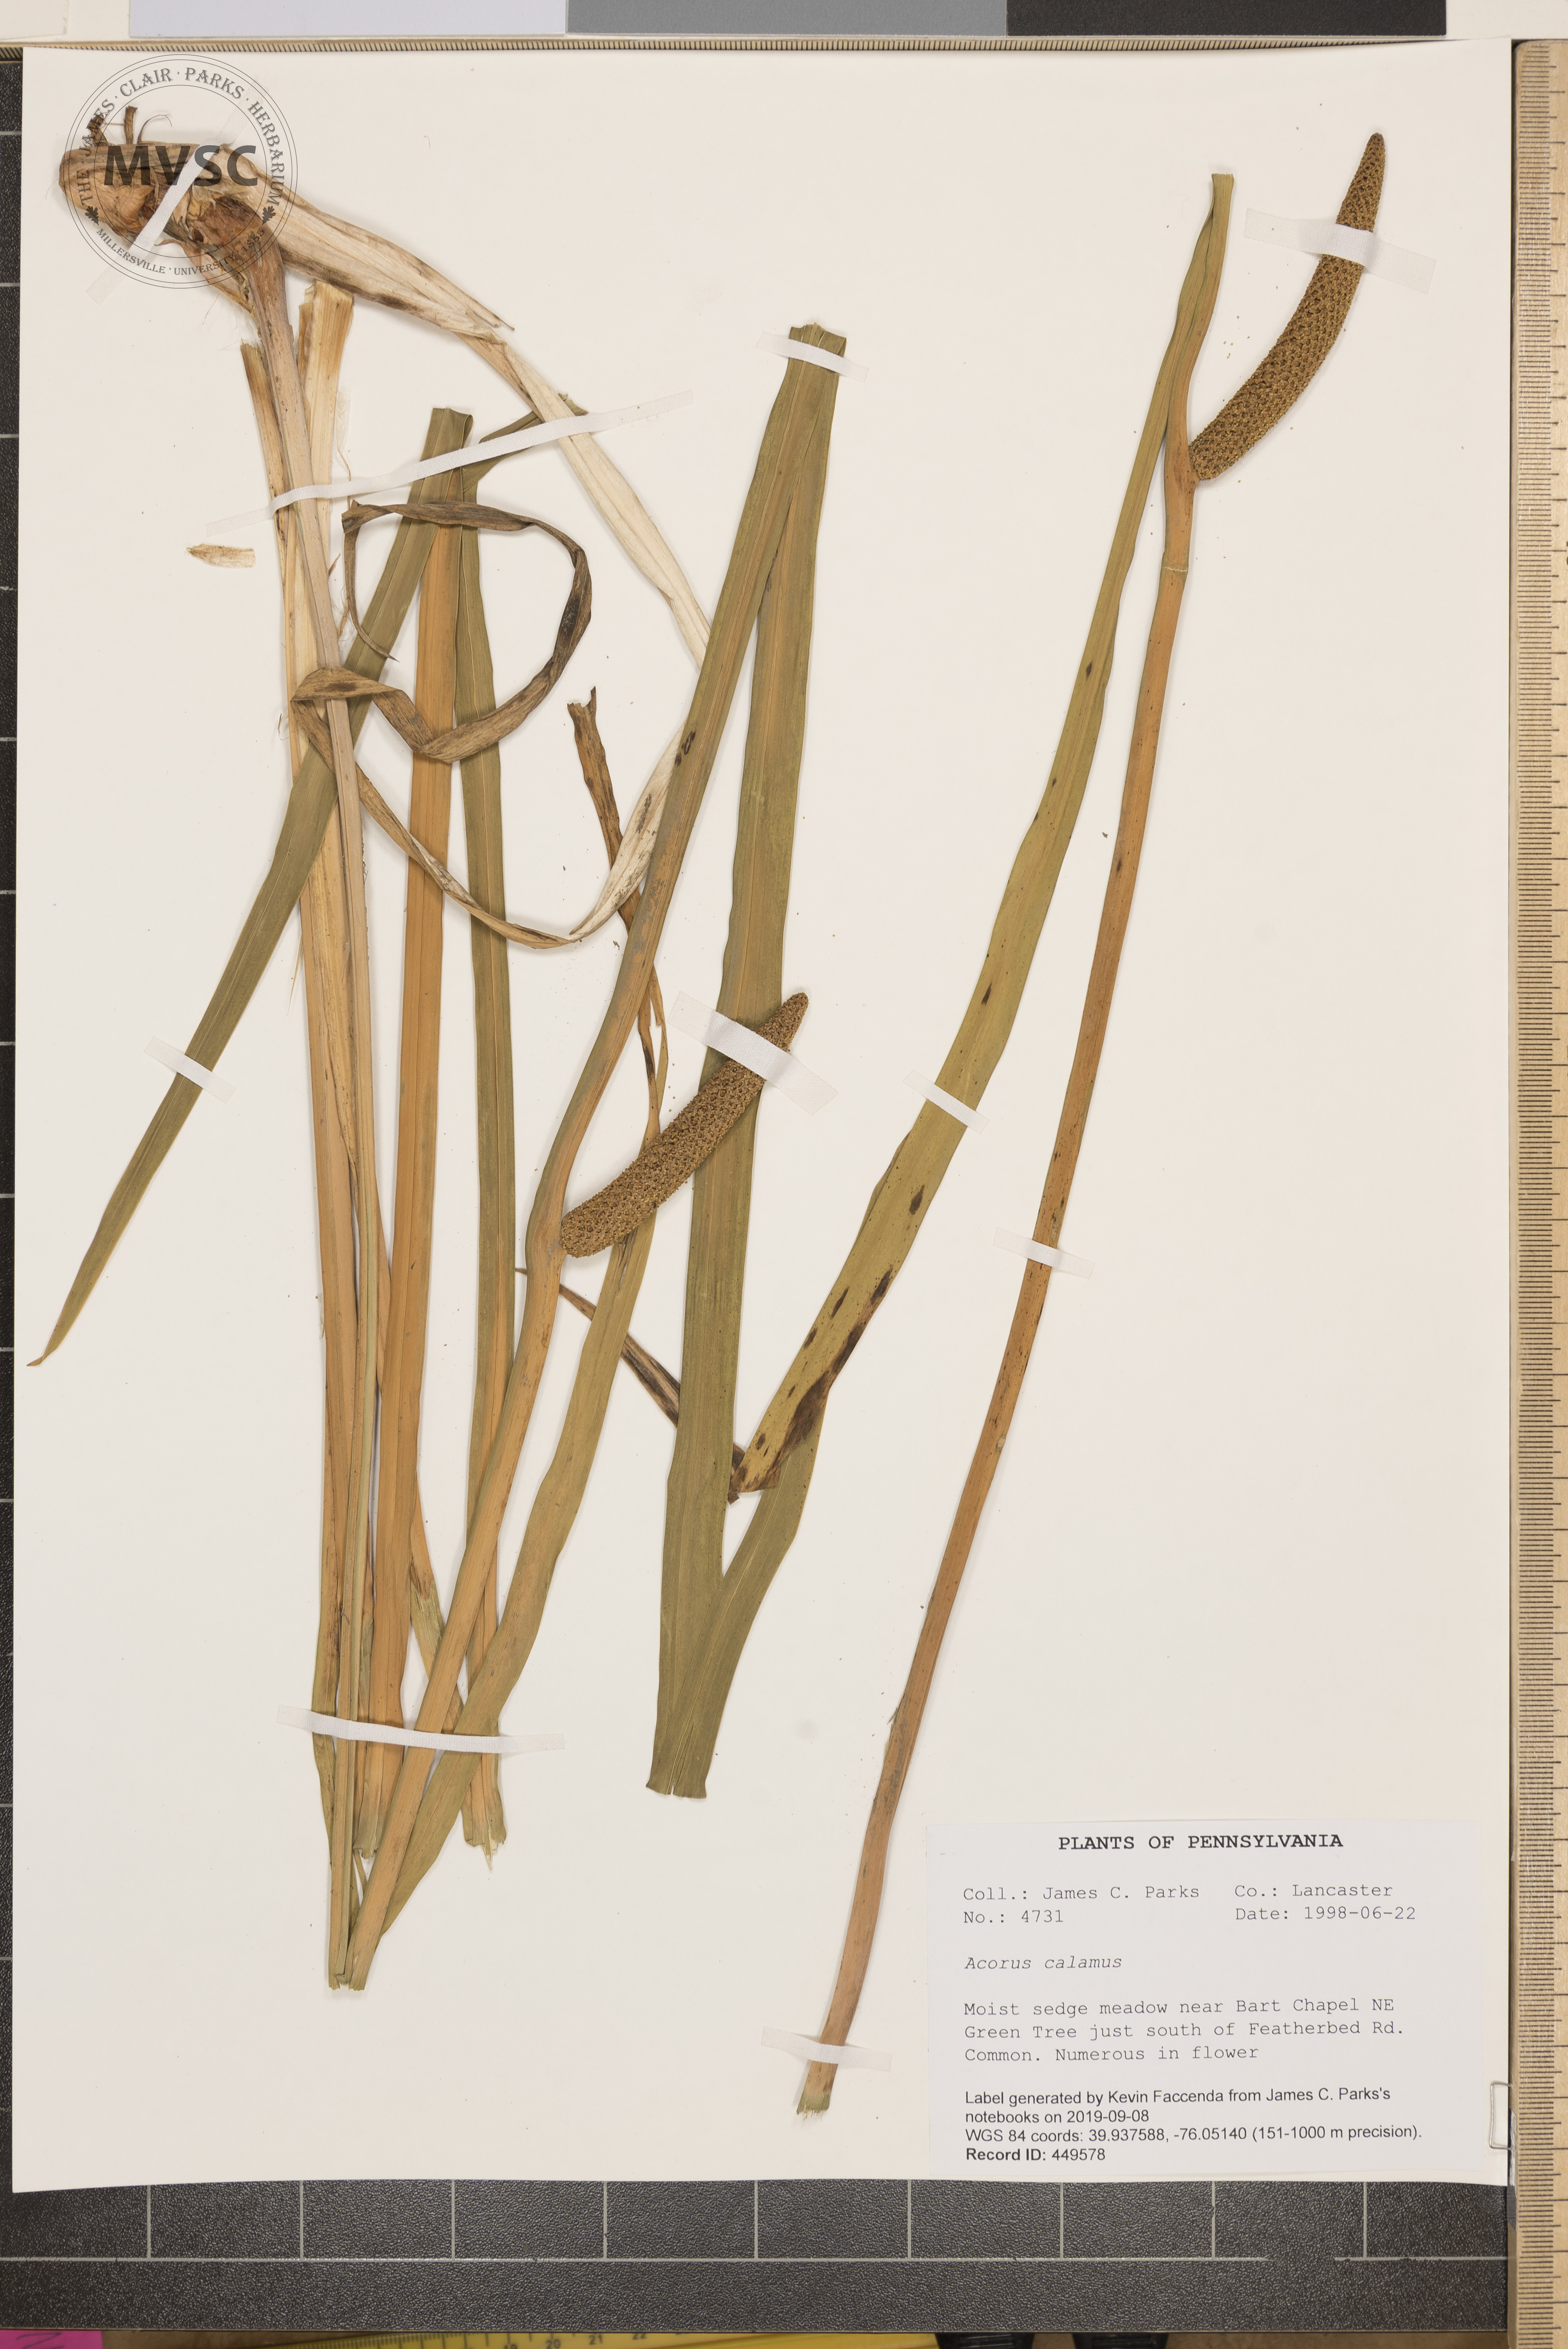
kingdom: Plantae
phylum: Tracheophyta
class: Liliopsida
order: Acorales
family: Acoraceae
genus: Acorus
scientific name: Acorus calamus
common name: Sweet-flag
